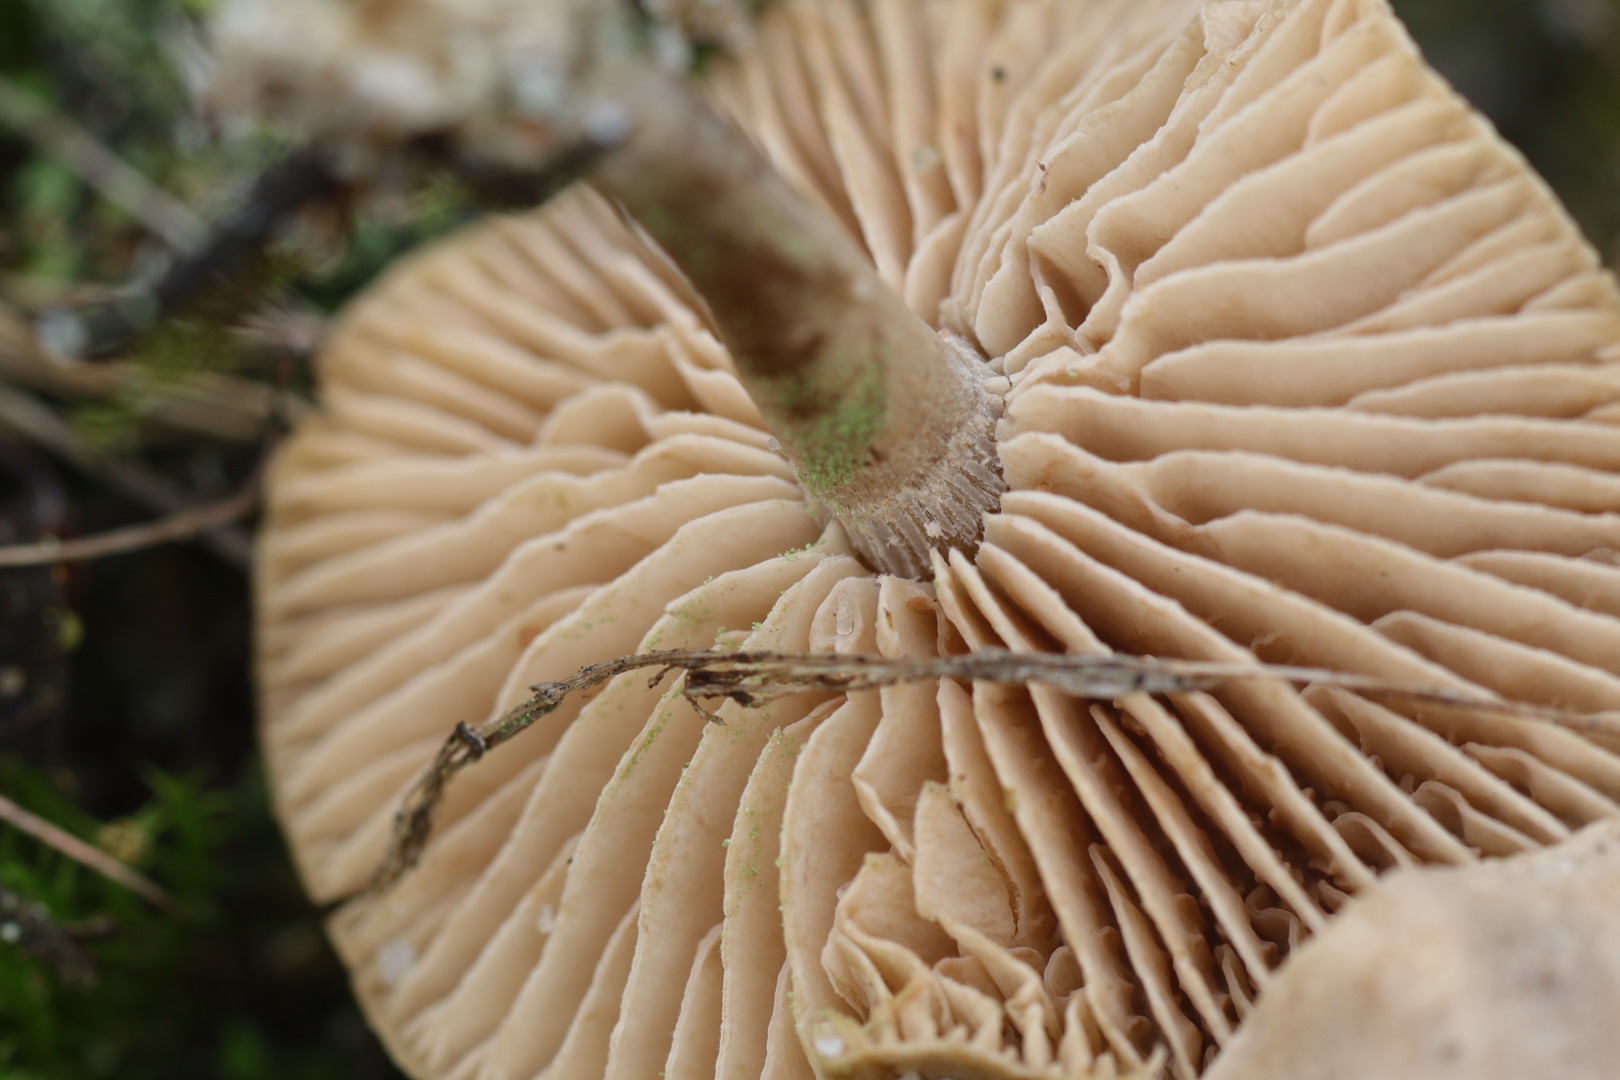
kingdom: Fungi
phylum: Basidiomycota
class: Agaricomycetes
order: Agaricales
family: Entolomataceae
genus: Rhodocybe
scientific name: Rhodocybe tugrulii
